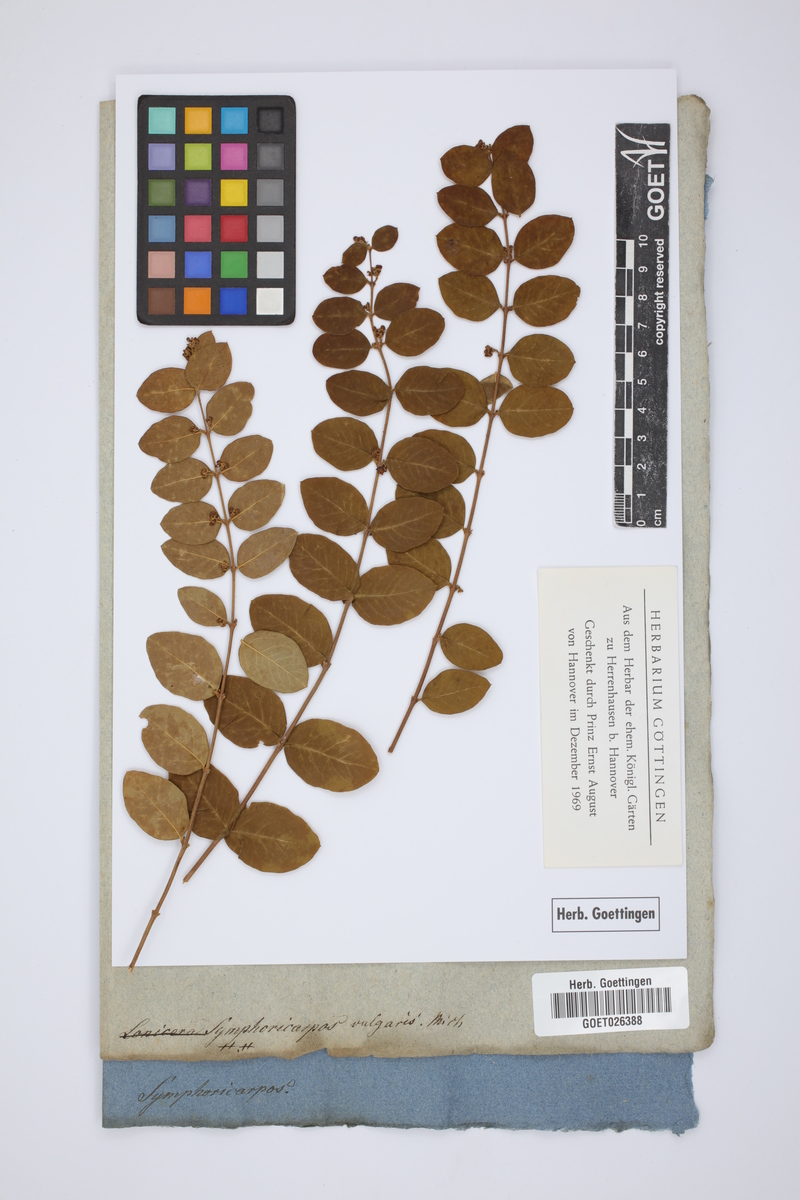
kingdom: Plantae
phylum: Tracheophyta
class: Magnoliopsida
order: Dipsacales
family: Caprifoliaceae
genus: Symphoricarpos
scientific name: Symphoricarpos orbiculatus
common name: Coralberry
